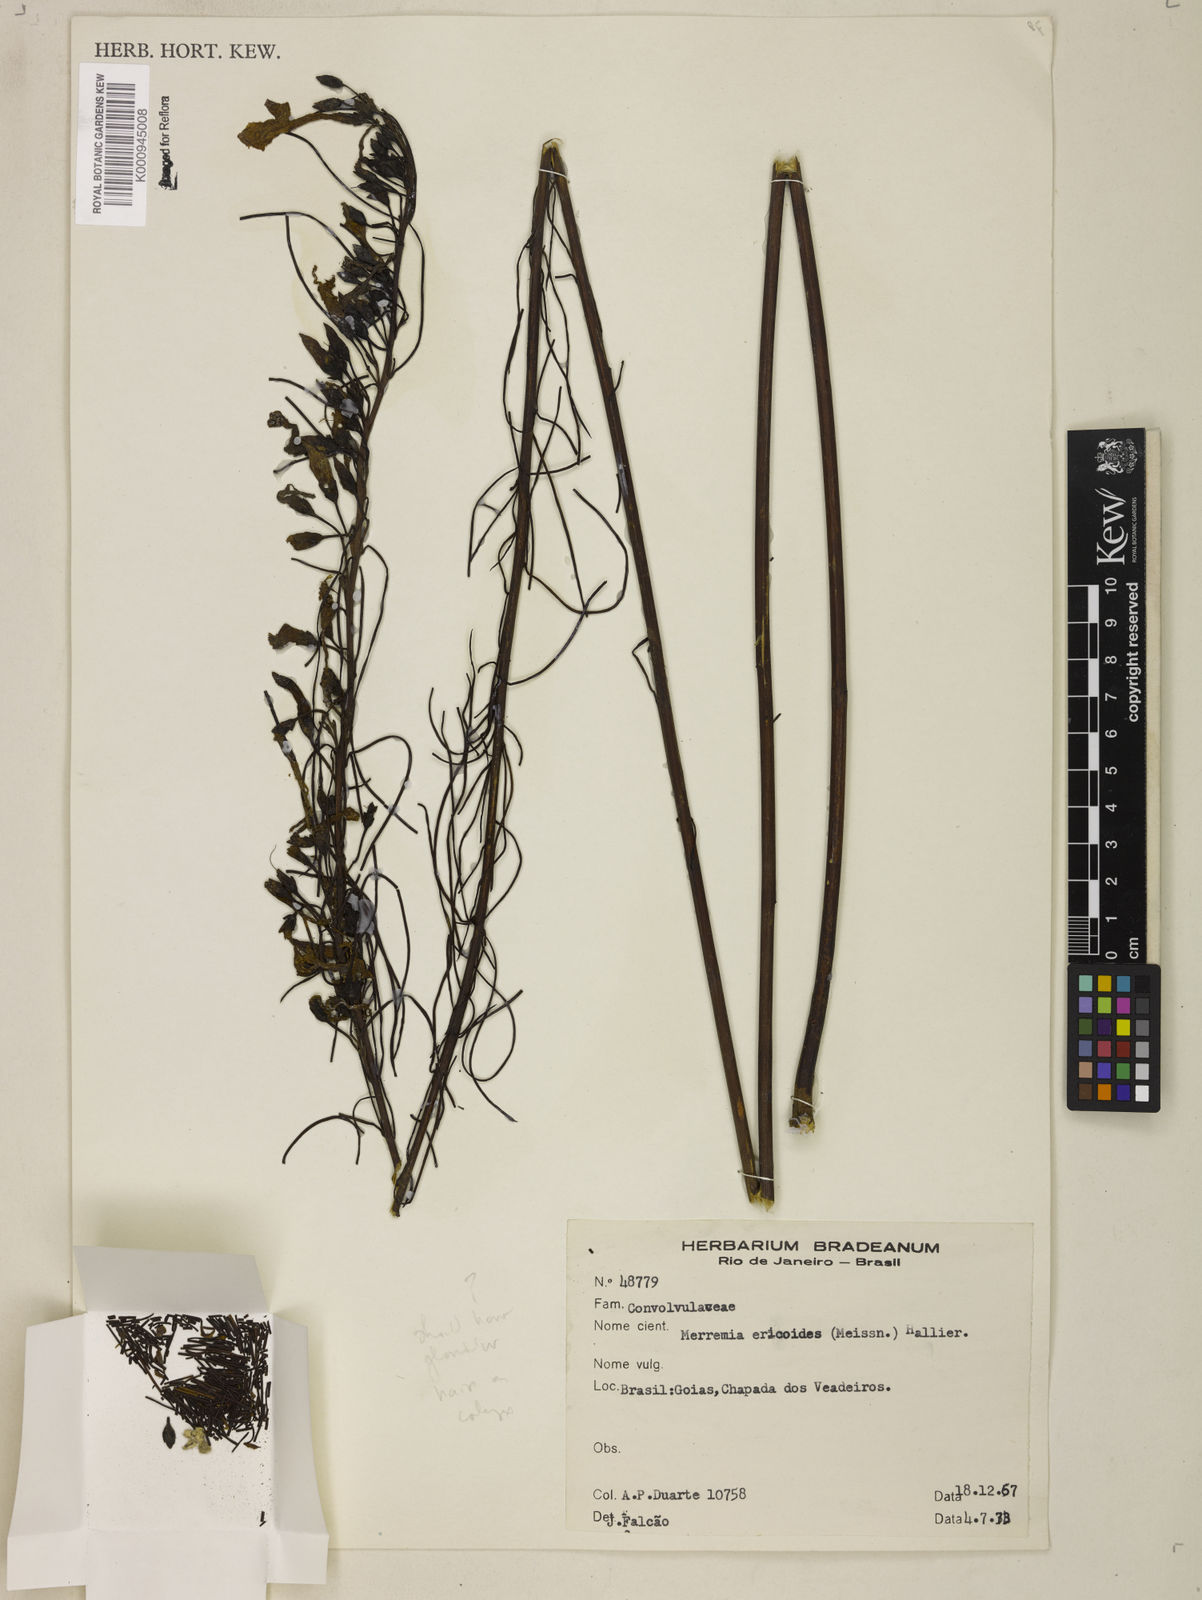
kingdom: Plantae
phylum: Tracheophyta
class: Magnoliopsida
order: Solanales
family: Convolvulaceae
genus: Distimake
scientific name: Distimake ericoides
